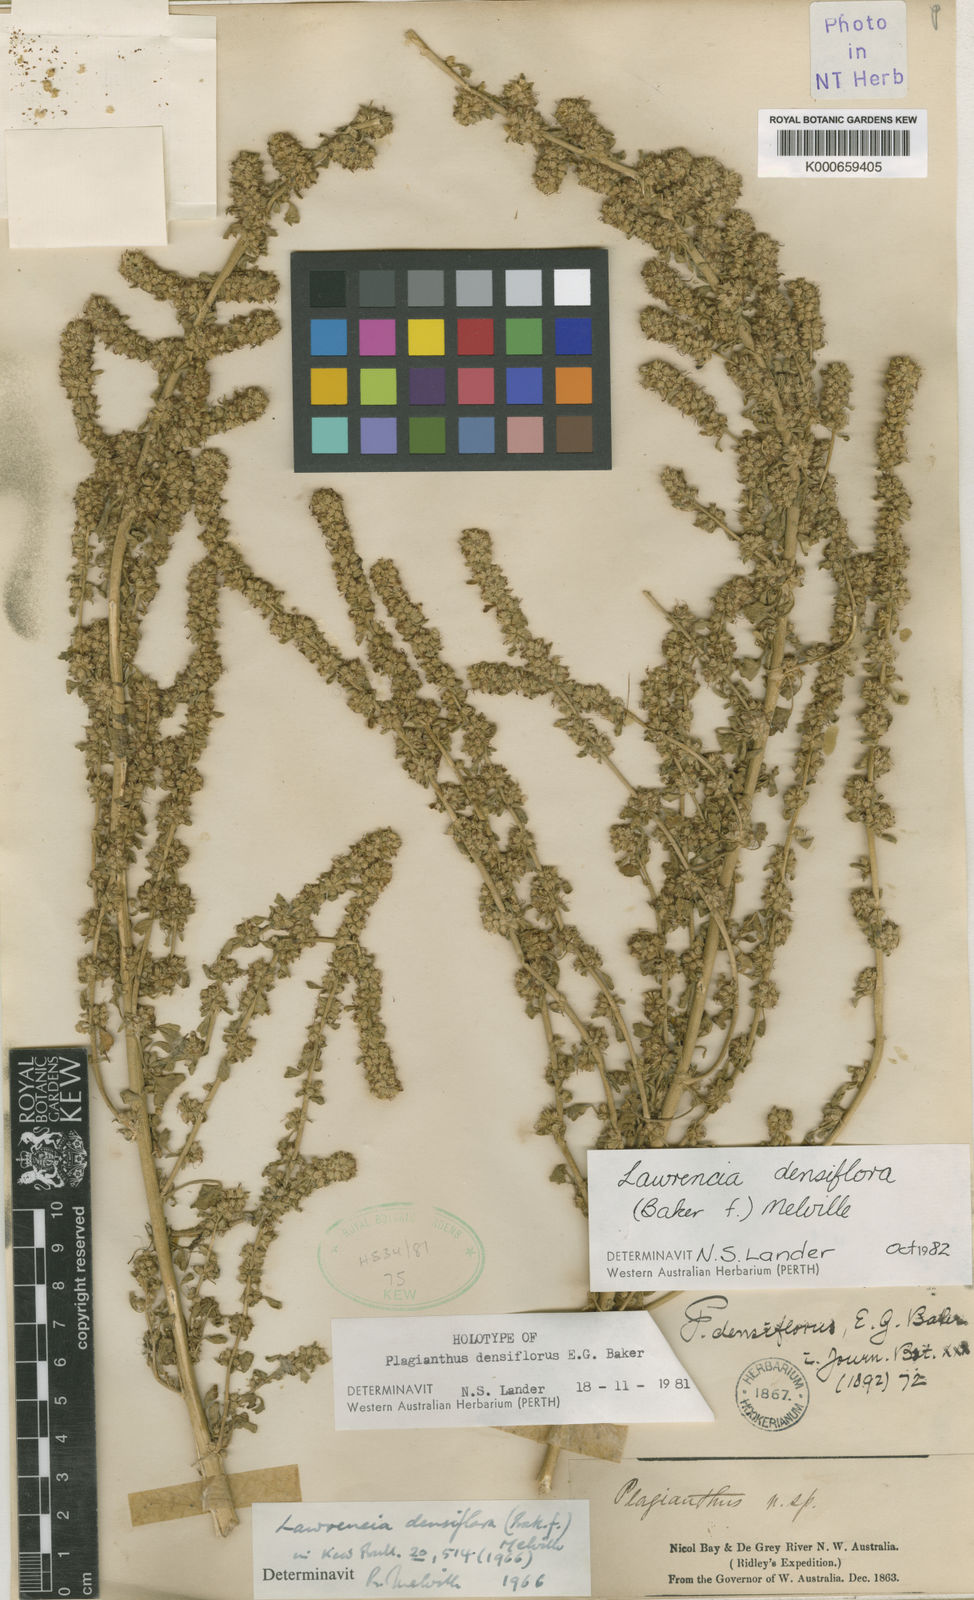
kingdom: Plantae
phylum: Tracheophyta
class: Magnoliopsida
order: Malvales
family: Malvaceae
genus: Lawrencia
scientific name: Lawrencia densiflora
